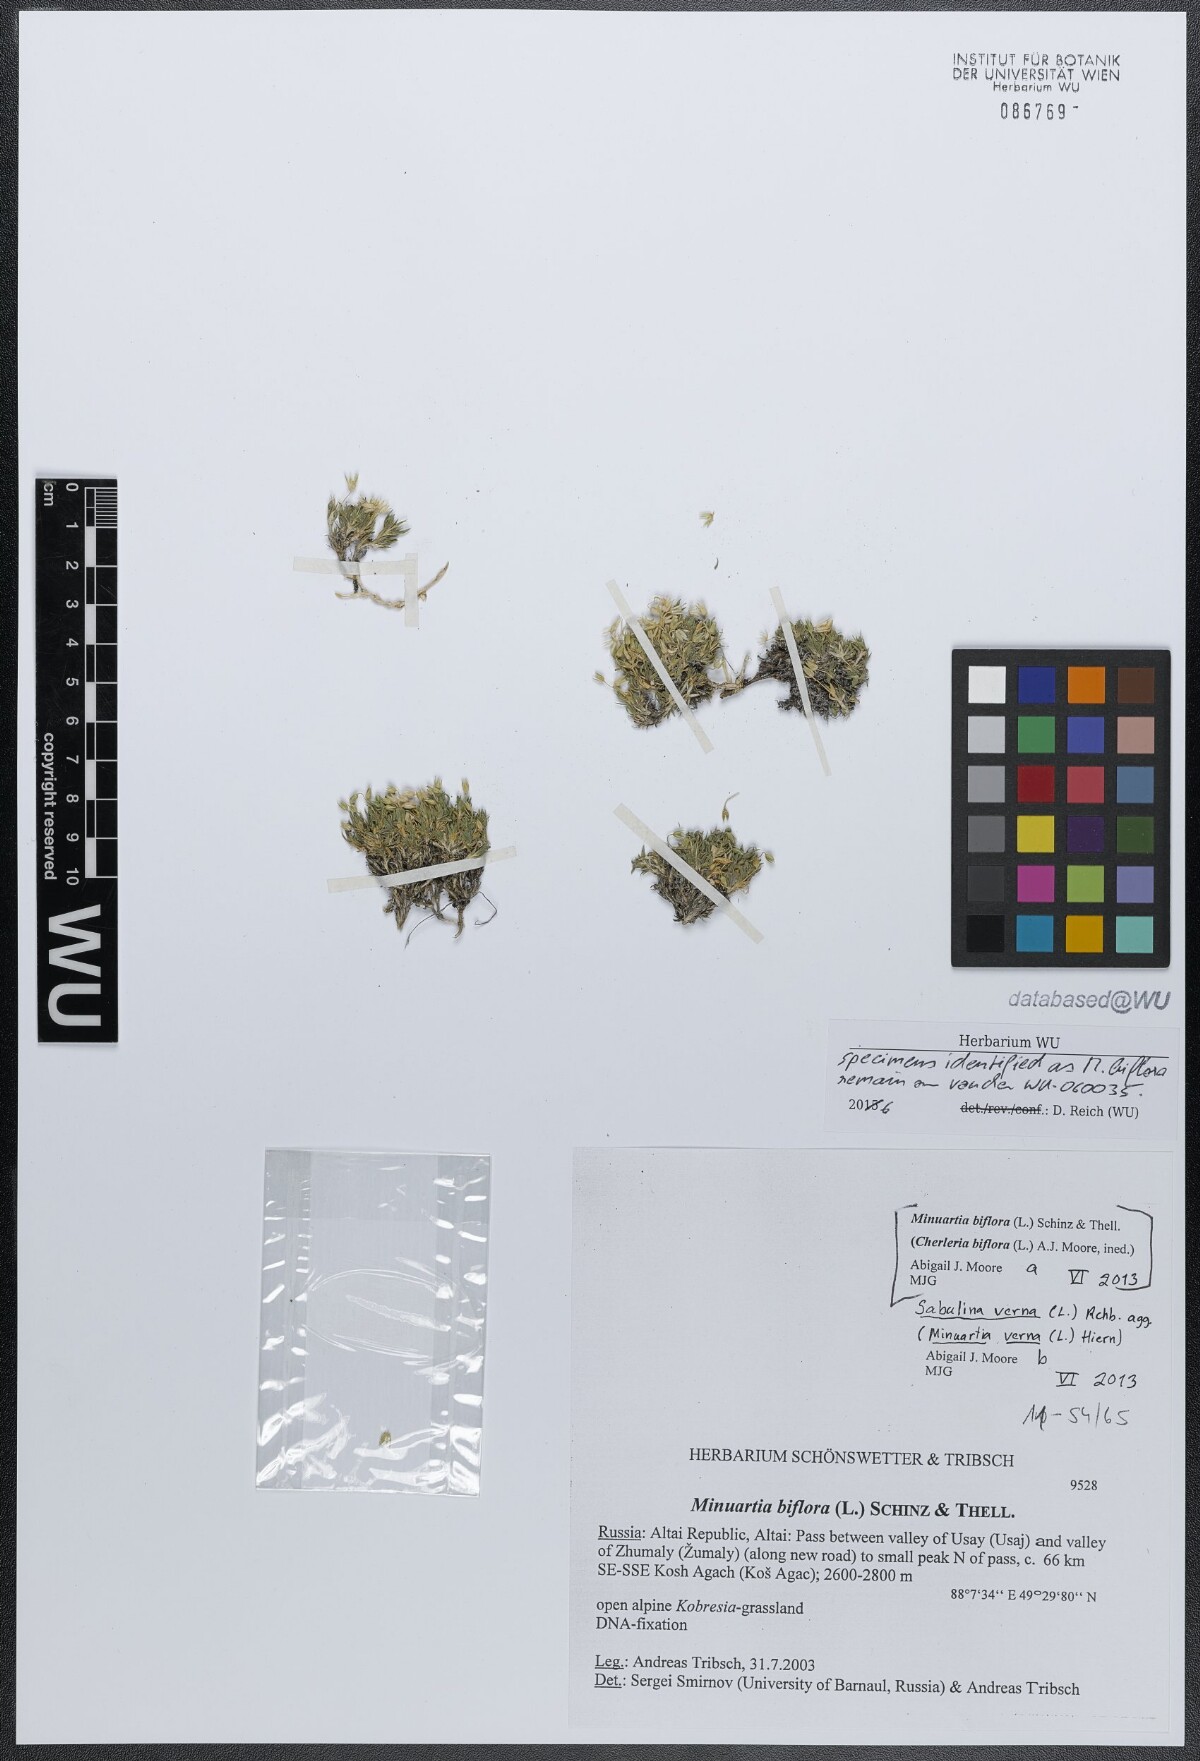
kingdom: Plantae
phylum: Tracheophyta
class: Magnoliopsida
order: Caryophyllales
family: Caryophyllaceae
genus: Sabulina
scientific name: Sabulina verna
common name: Spring sandwort
